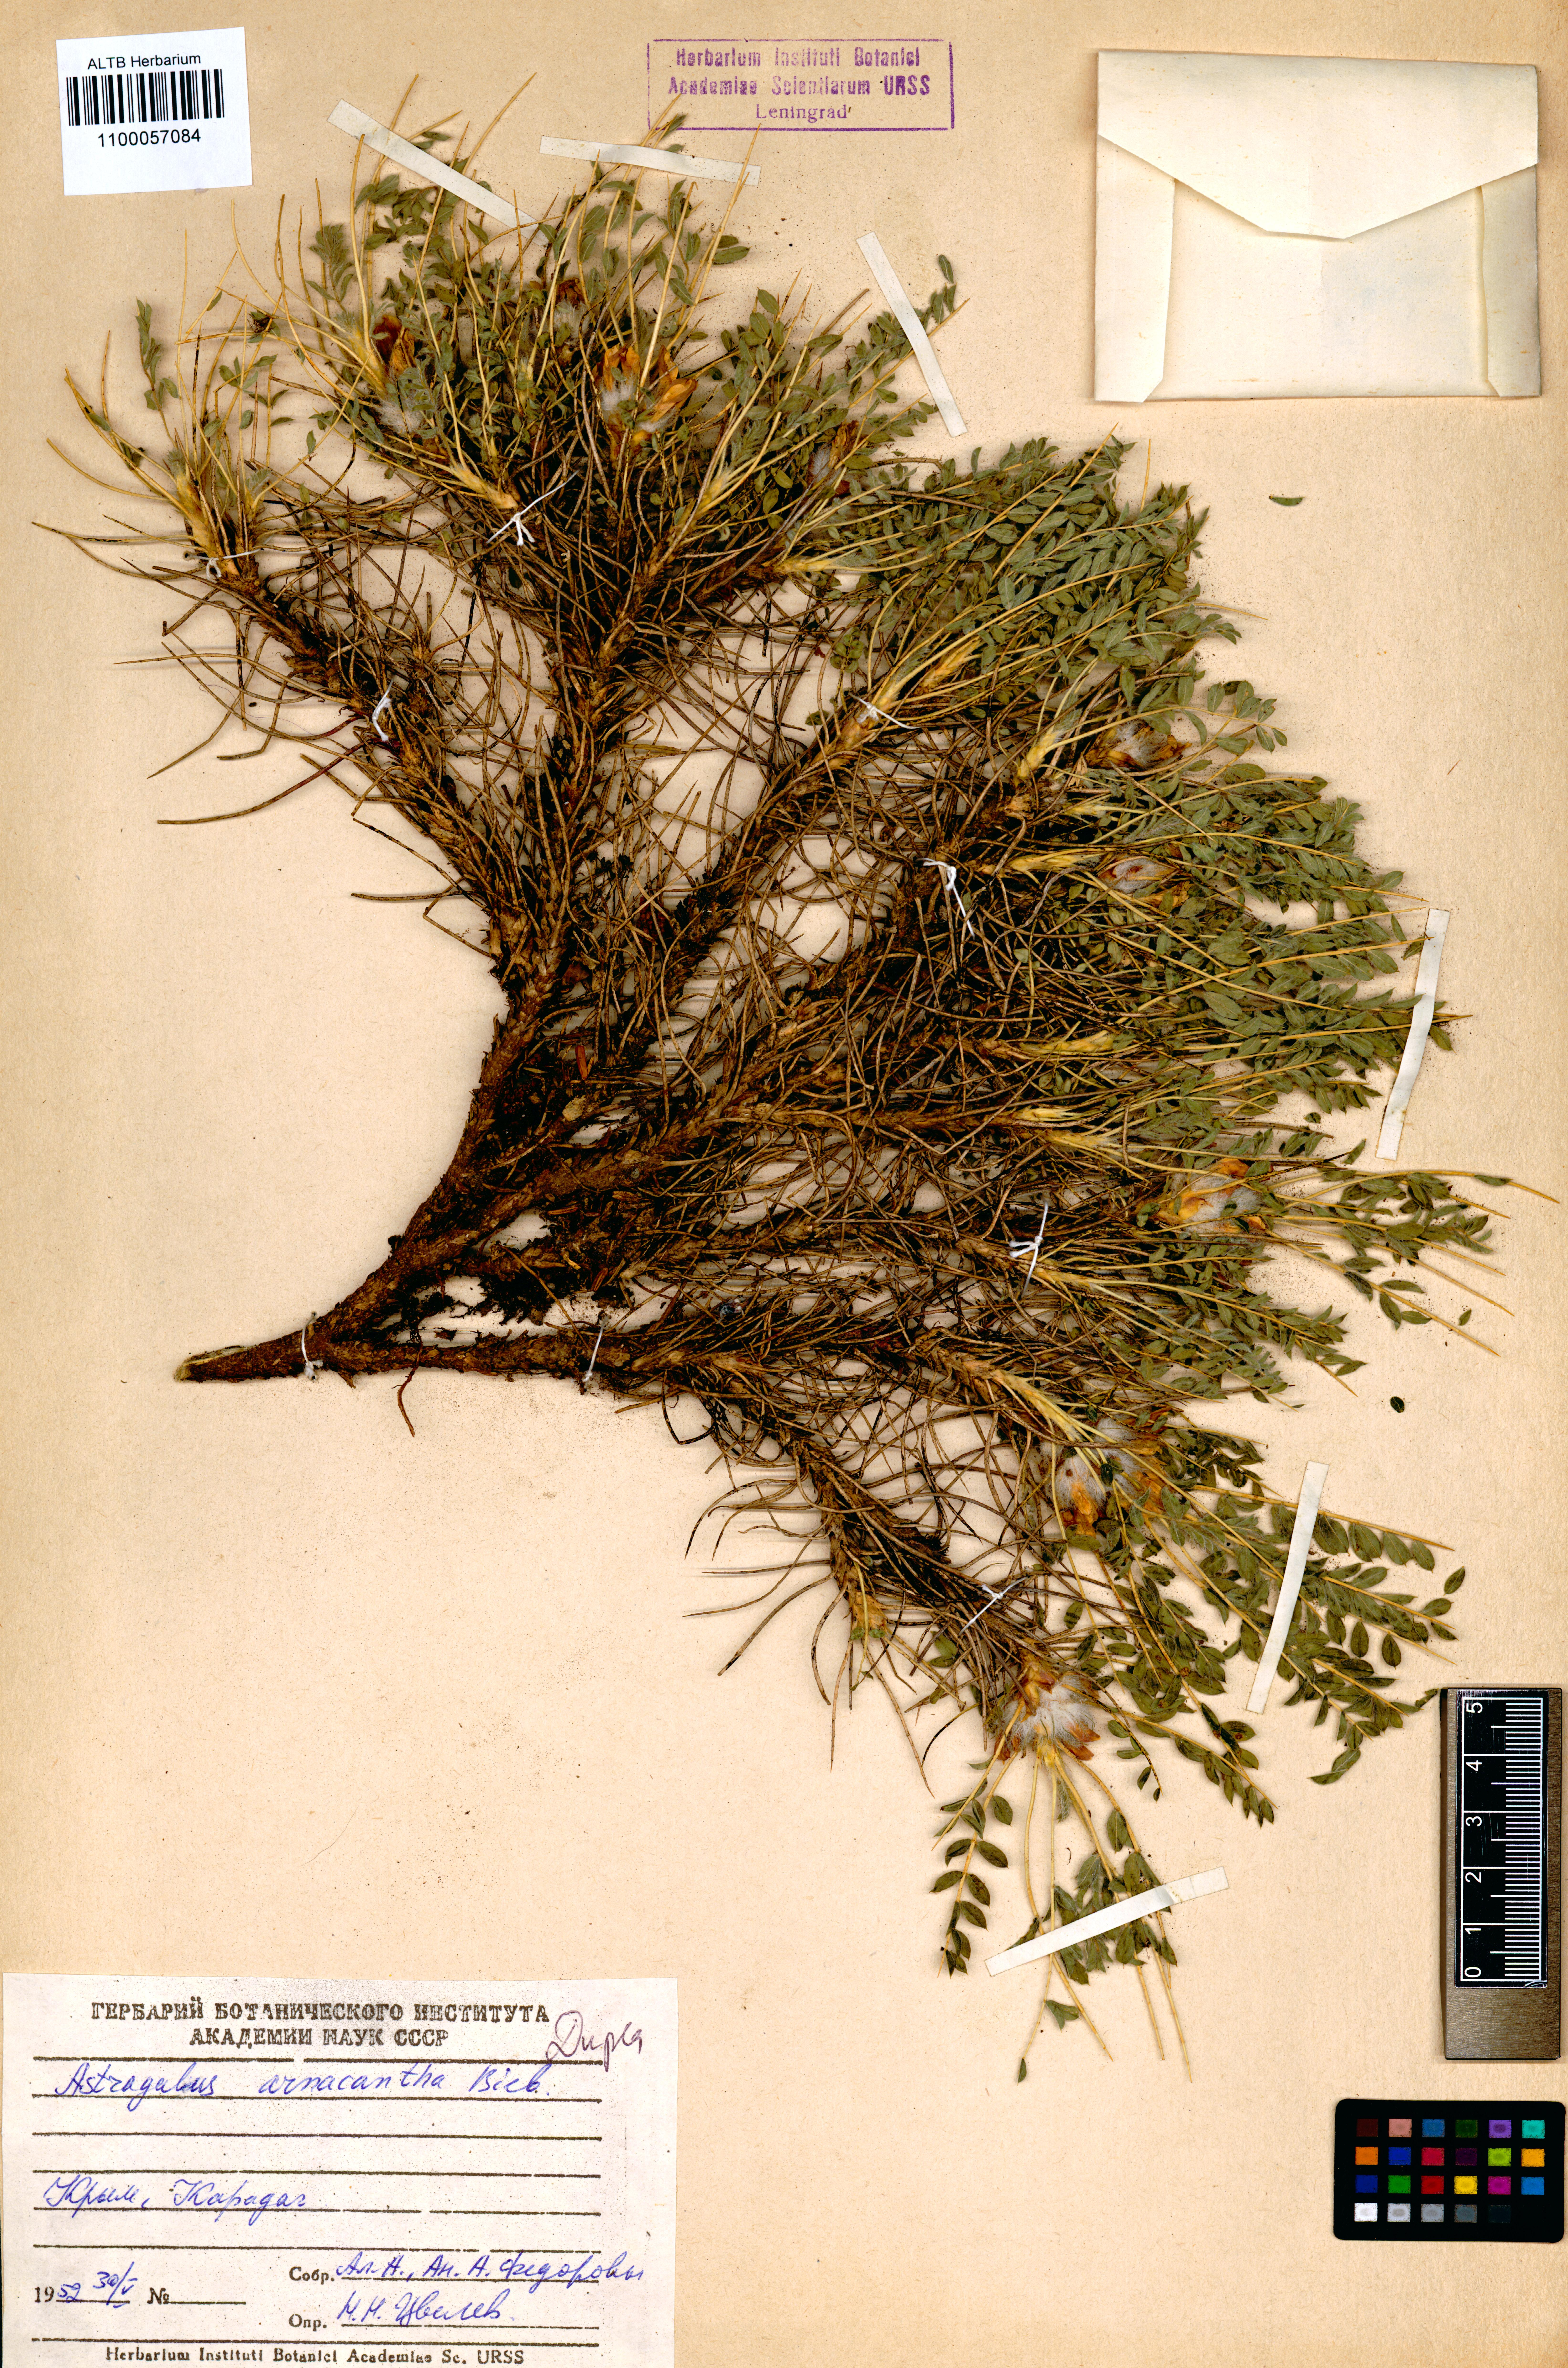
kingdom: Plantae
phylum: Tracheophyta
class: Magnoliopsida
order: Fabales
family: Fabaceae
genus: Astragalus
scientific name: Astragalus arnacantha
